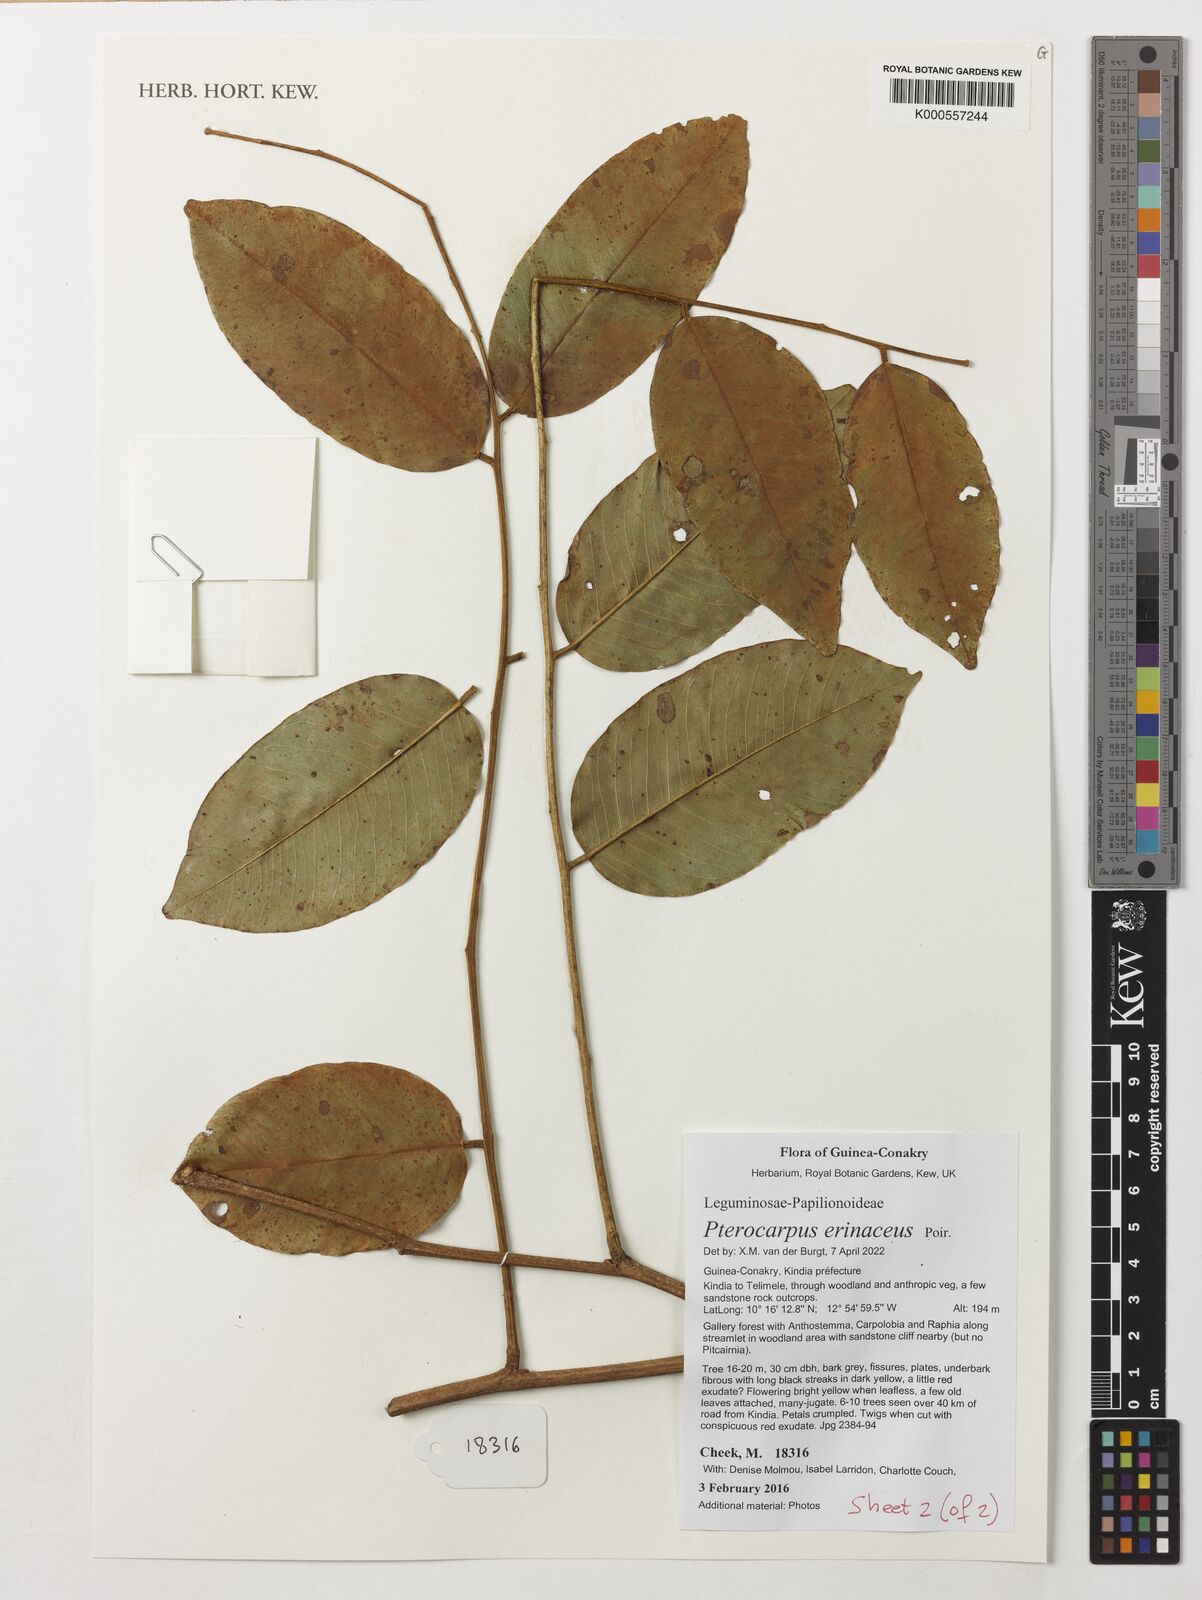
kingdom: Plantae
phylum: Tracheophyta
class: Magnoliopsida
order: Fabales
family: Fabaceae
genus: Mucuna
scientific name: Mucuna pruriens
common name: Cow-itch
